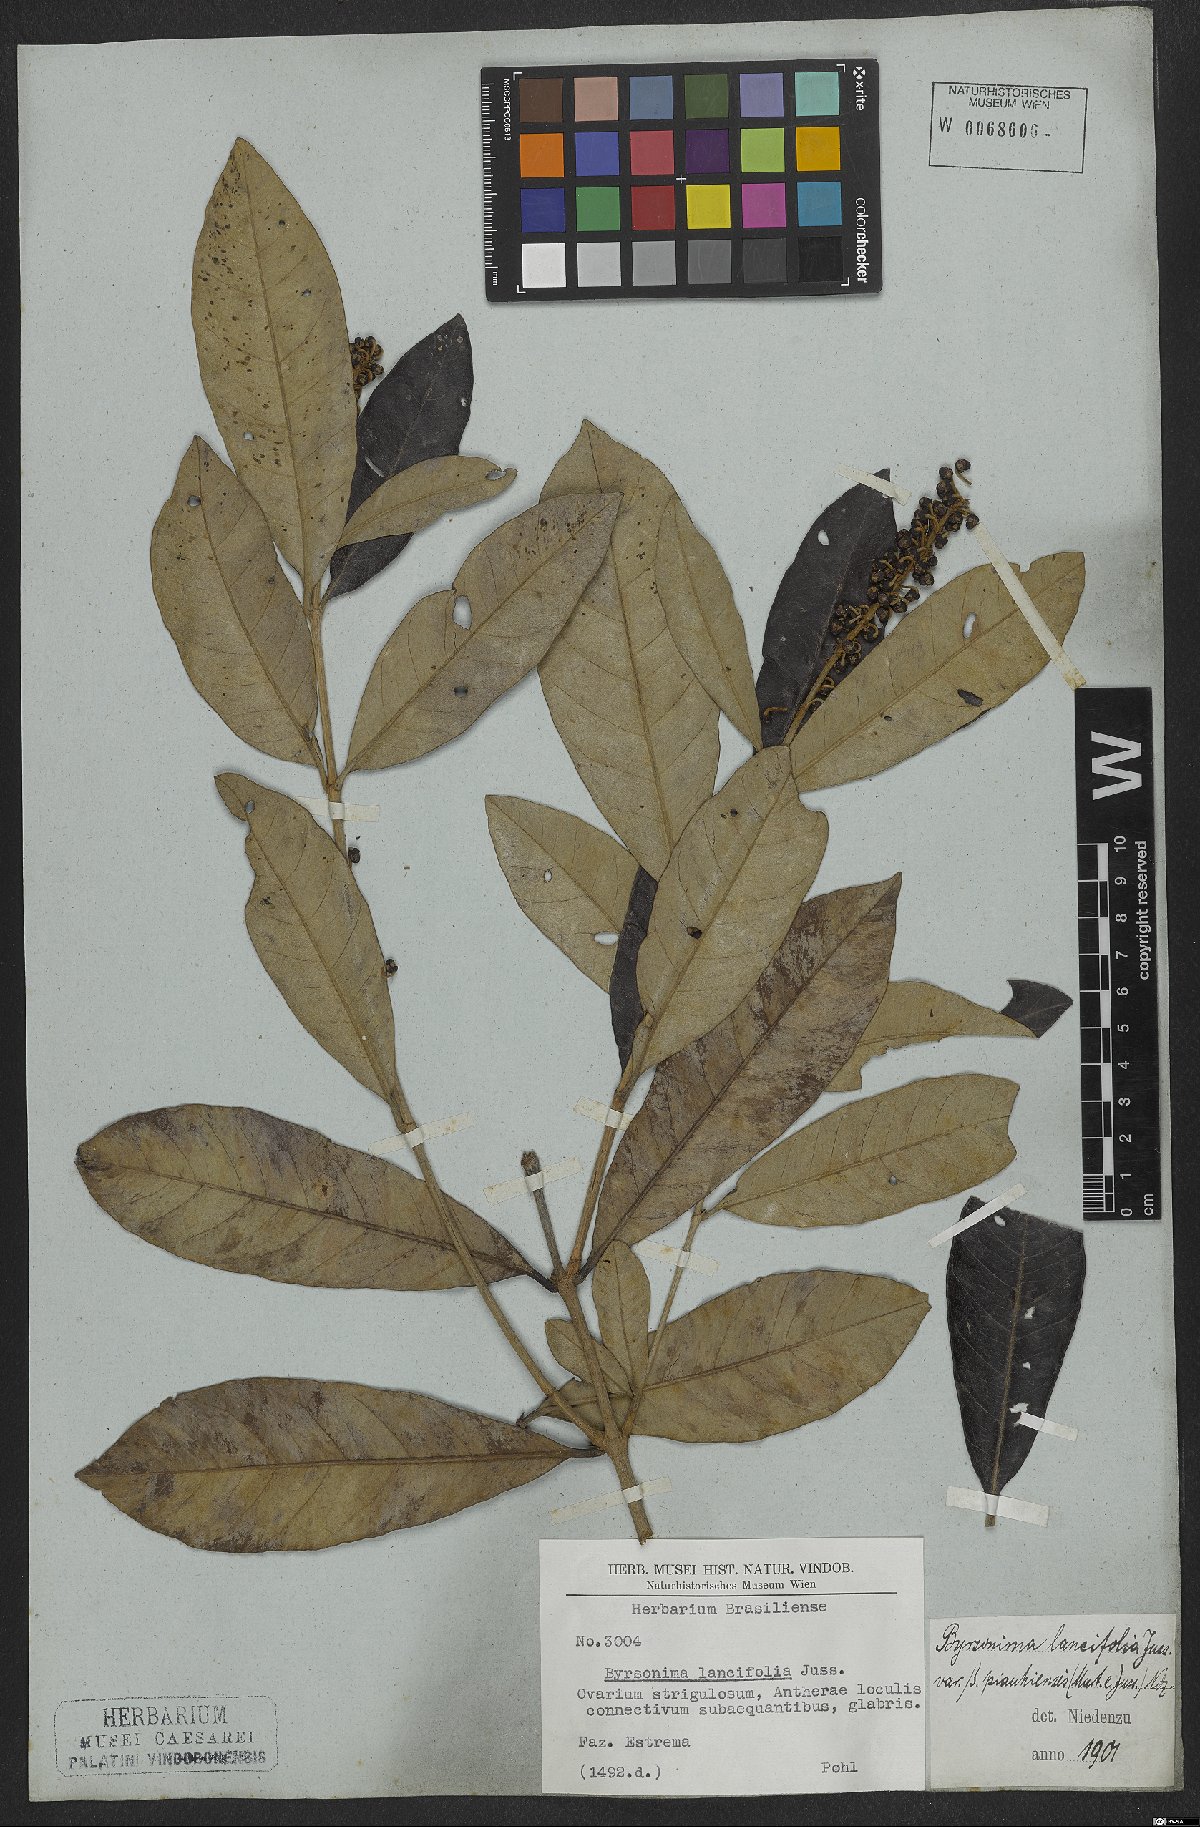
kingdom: Plantae
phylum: Tracheophyta
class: Magnoliopsida
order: Malpighiales
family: Malpighiaceae
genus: Byrsonima
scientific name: Byrsonima lancifolia
